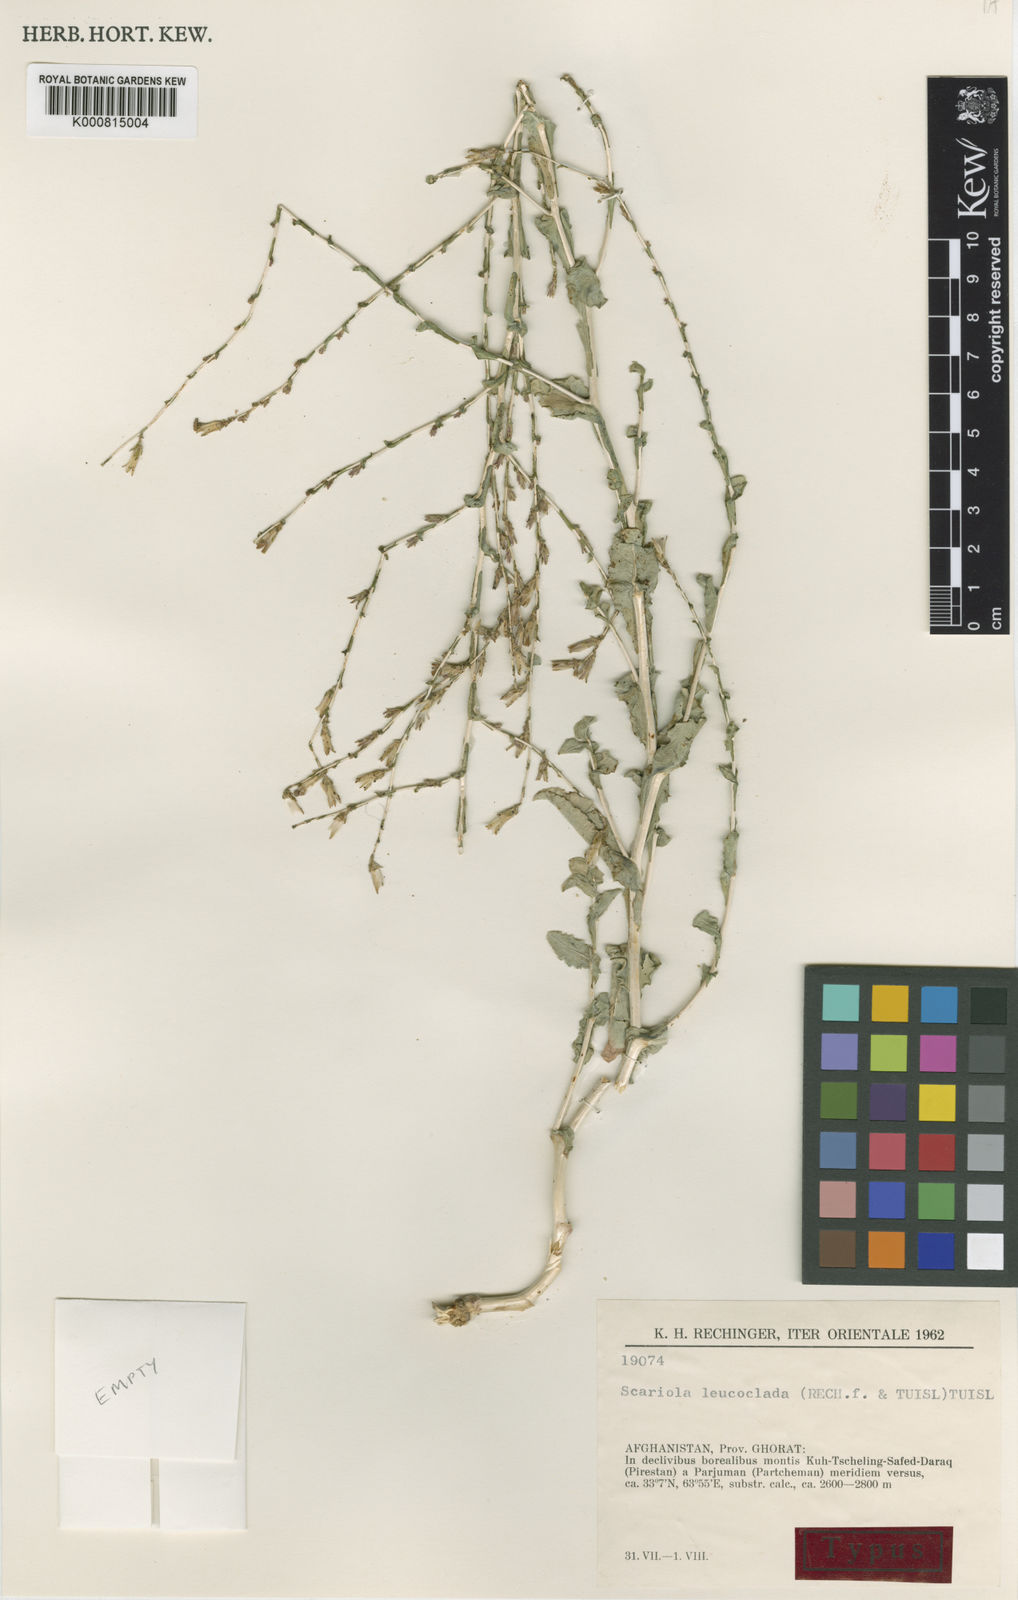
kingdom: Plantae
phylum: Tracheophyta
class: Magnoliopsida
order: Asterales
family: Asteraceae
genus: Lactuca
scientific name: Lactuca leucoclada
